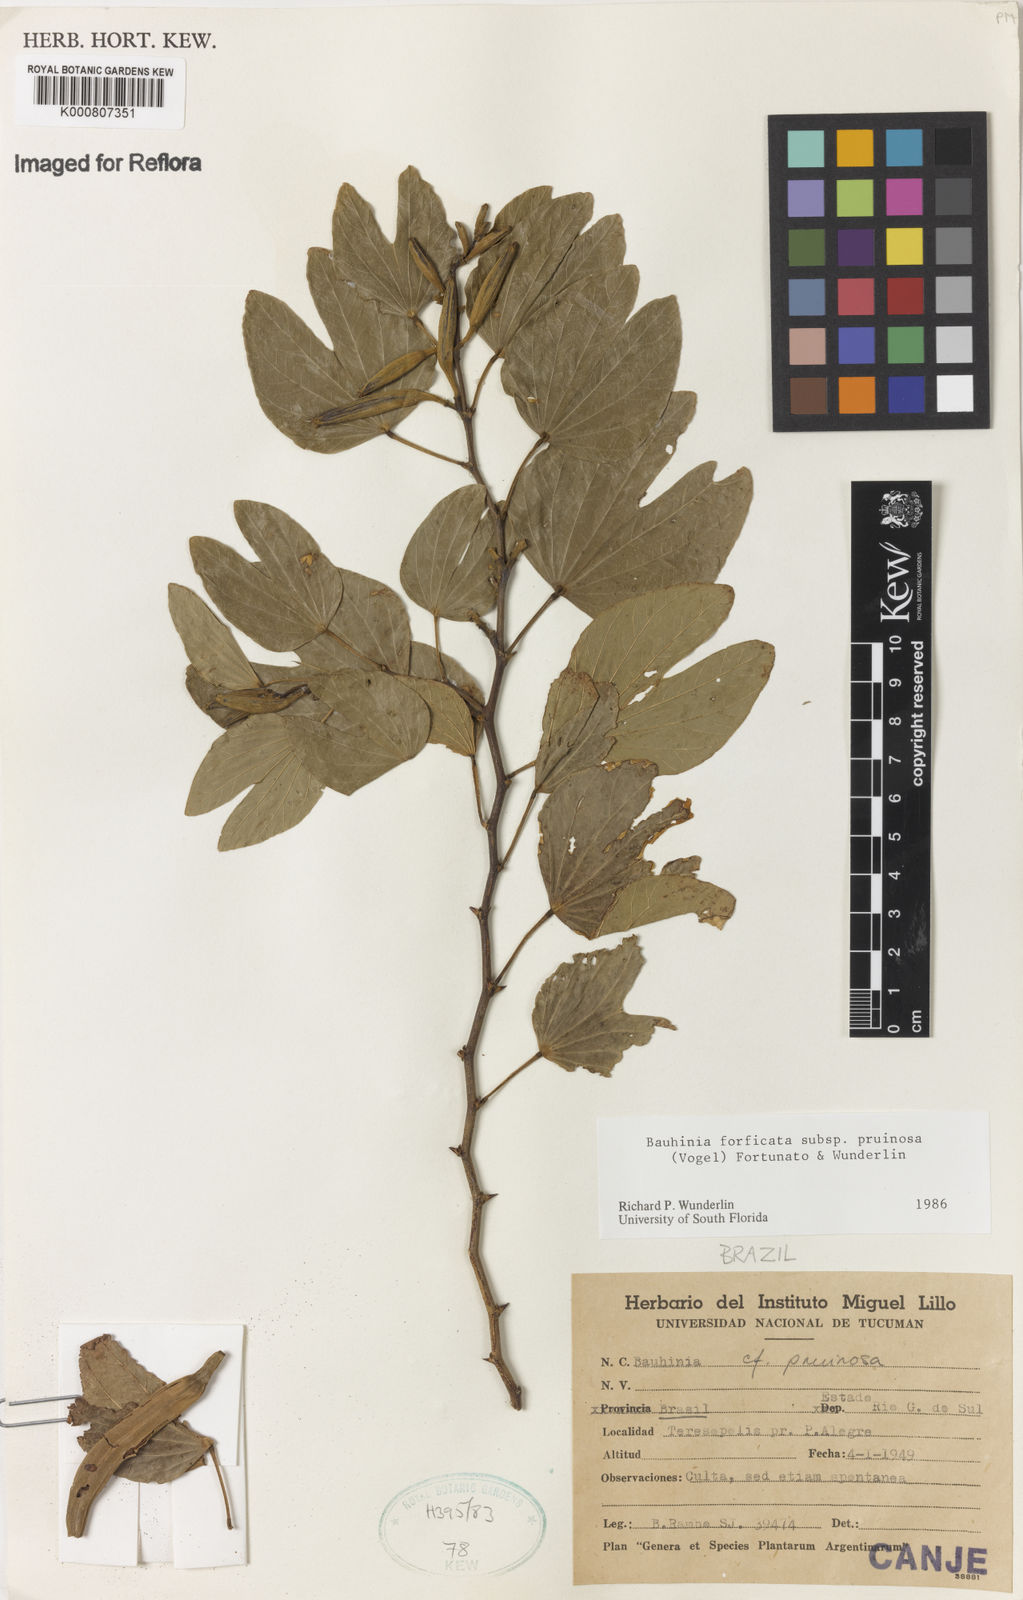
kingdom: Plantae
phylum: Tracheophyta
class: Magnoliopsida
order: Fabales
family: Fabaceae
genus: Bauhinia
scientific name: Bauhinia forficata
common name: Orchid tree
